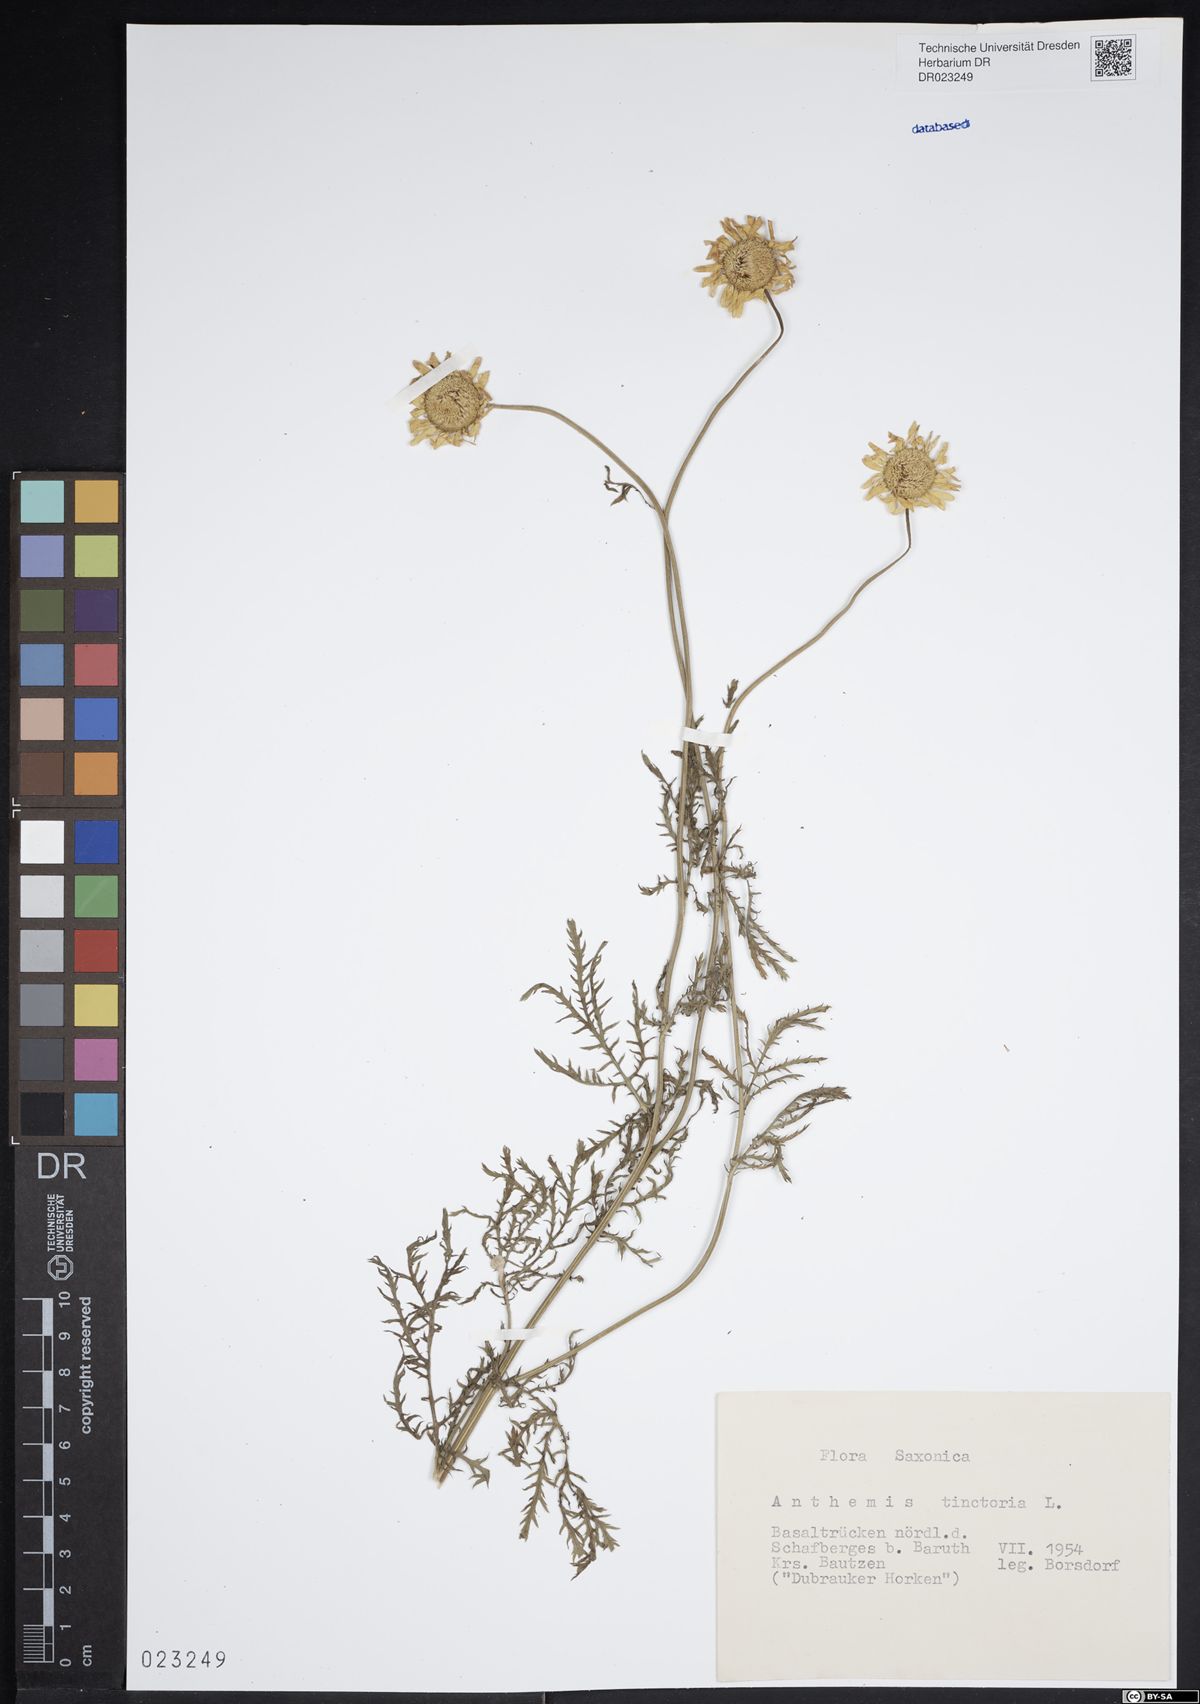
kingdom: Plantae
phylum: Tracheophyta
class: Magnoliopsida
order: Asterales
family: Asteraceae
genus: Cota
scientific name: Cota tinctoria
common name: Golden chamomile
